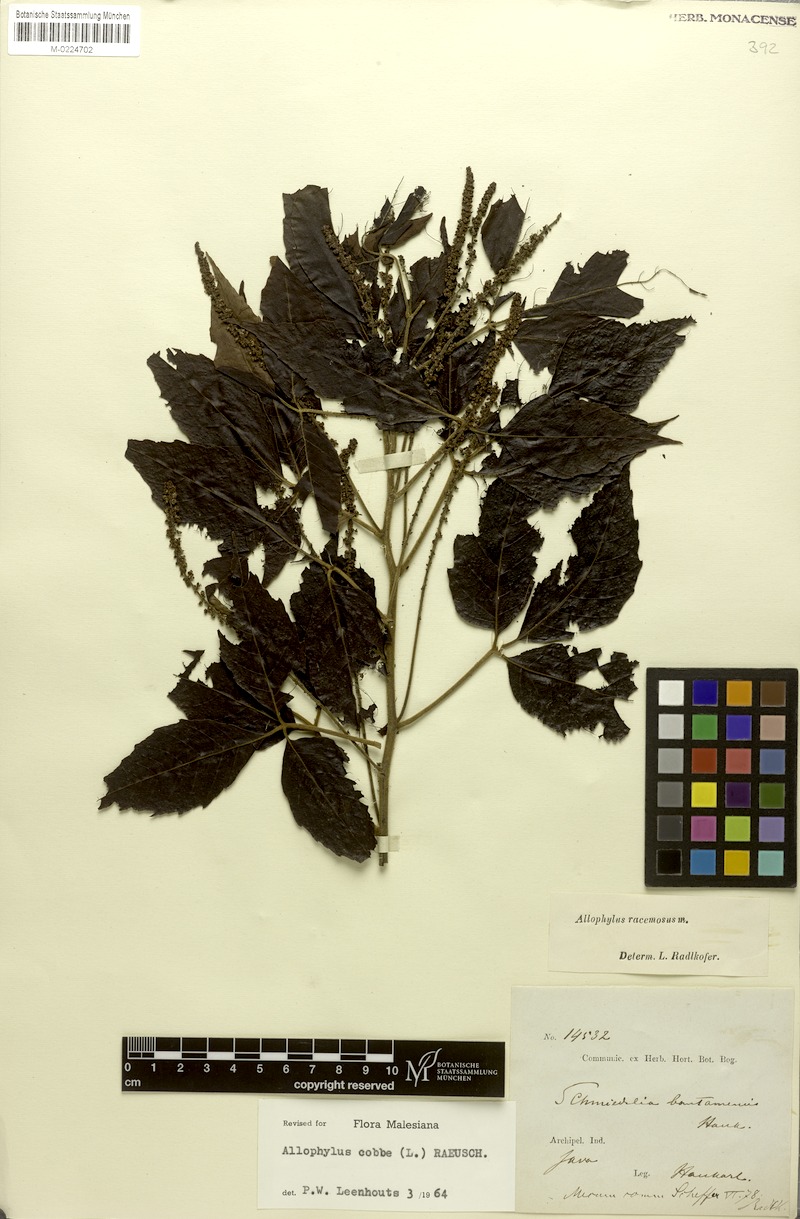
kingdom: Plantae
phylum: Tracheophyta
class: Magnoliopsida
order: Sapindales
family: Sapindaceae
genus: Allophylus
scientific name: Allophylus racemosus
